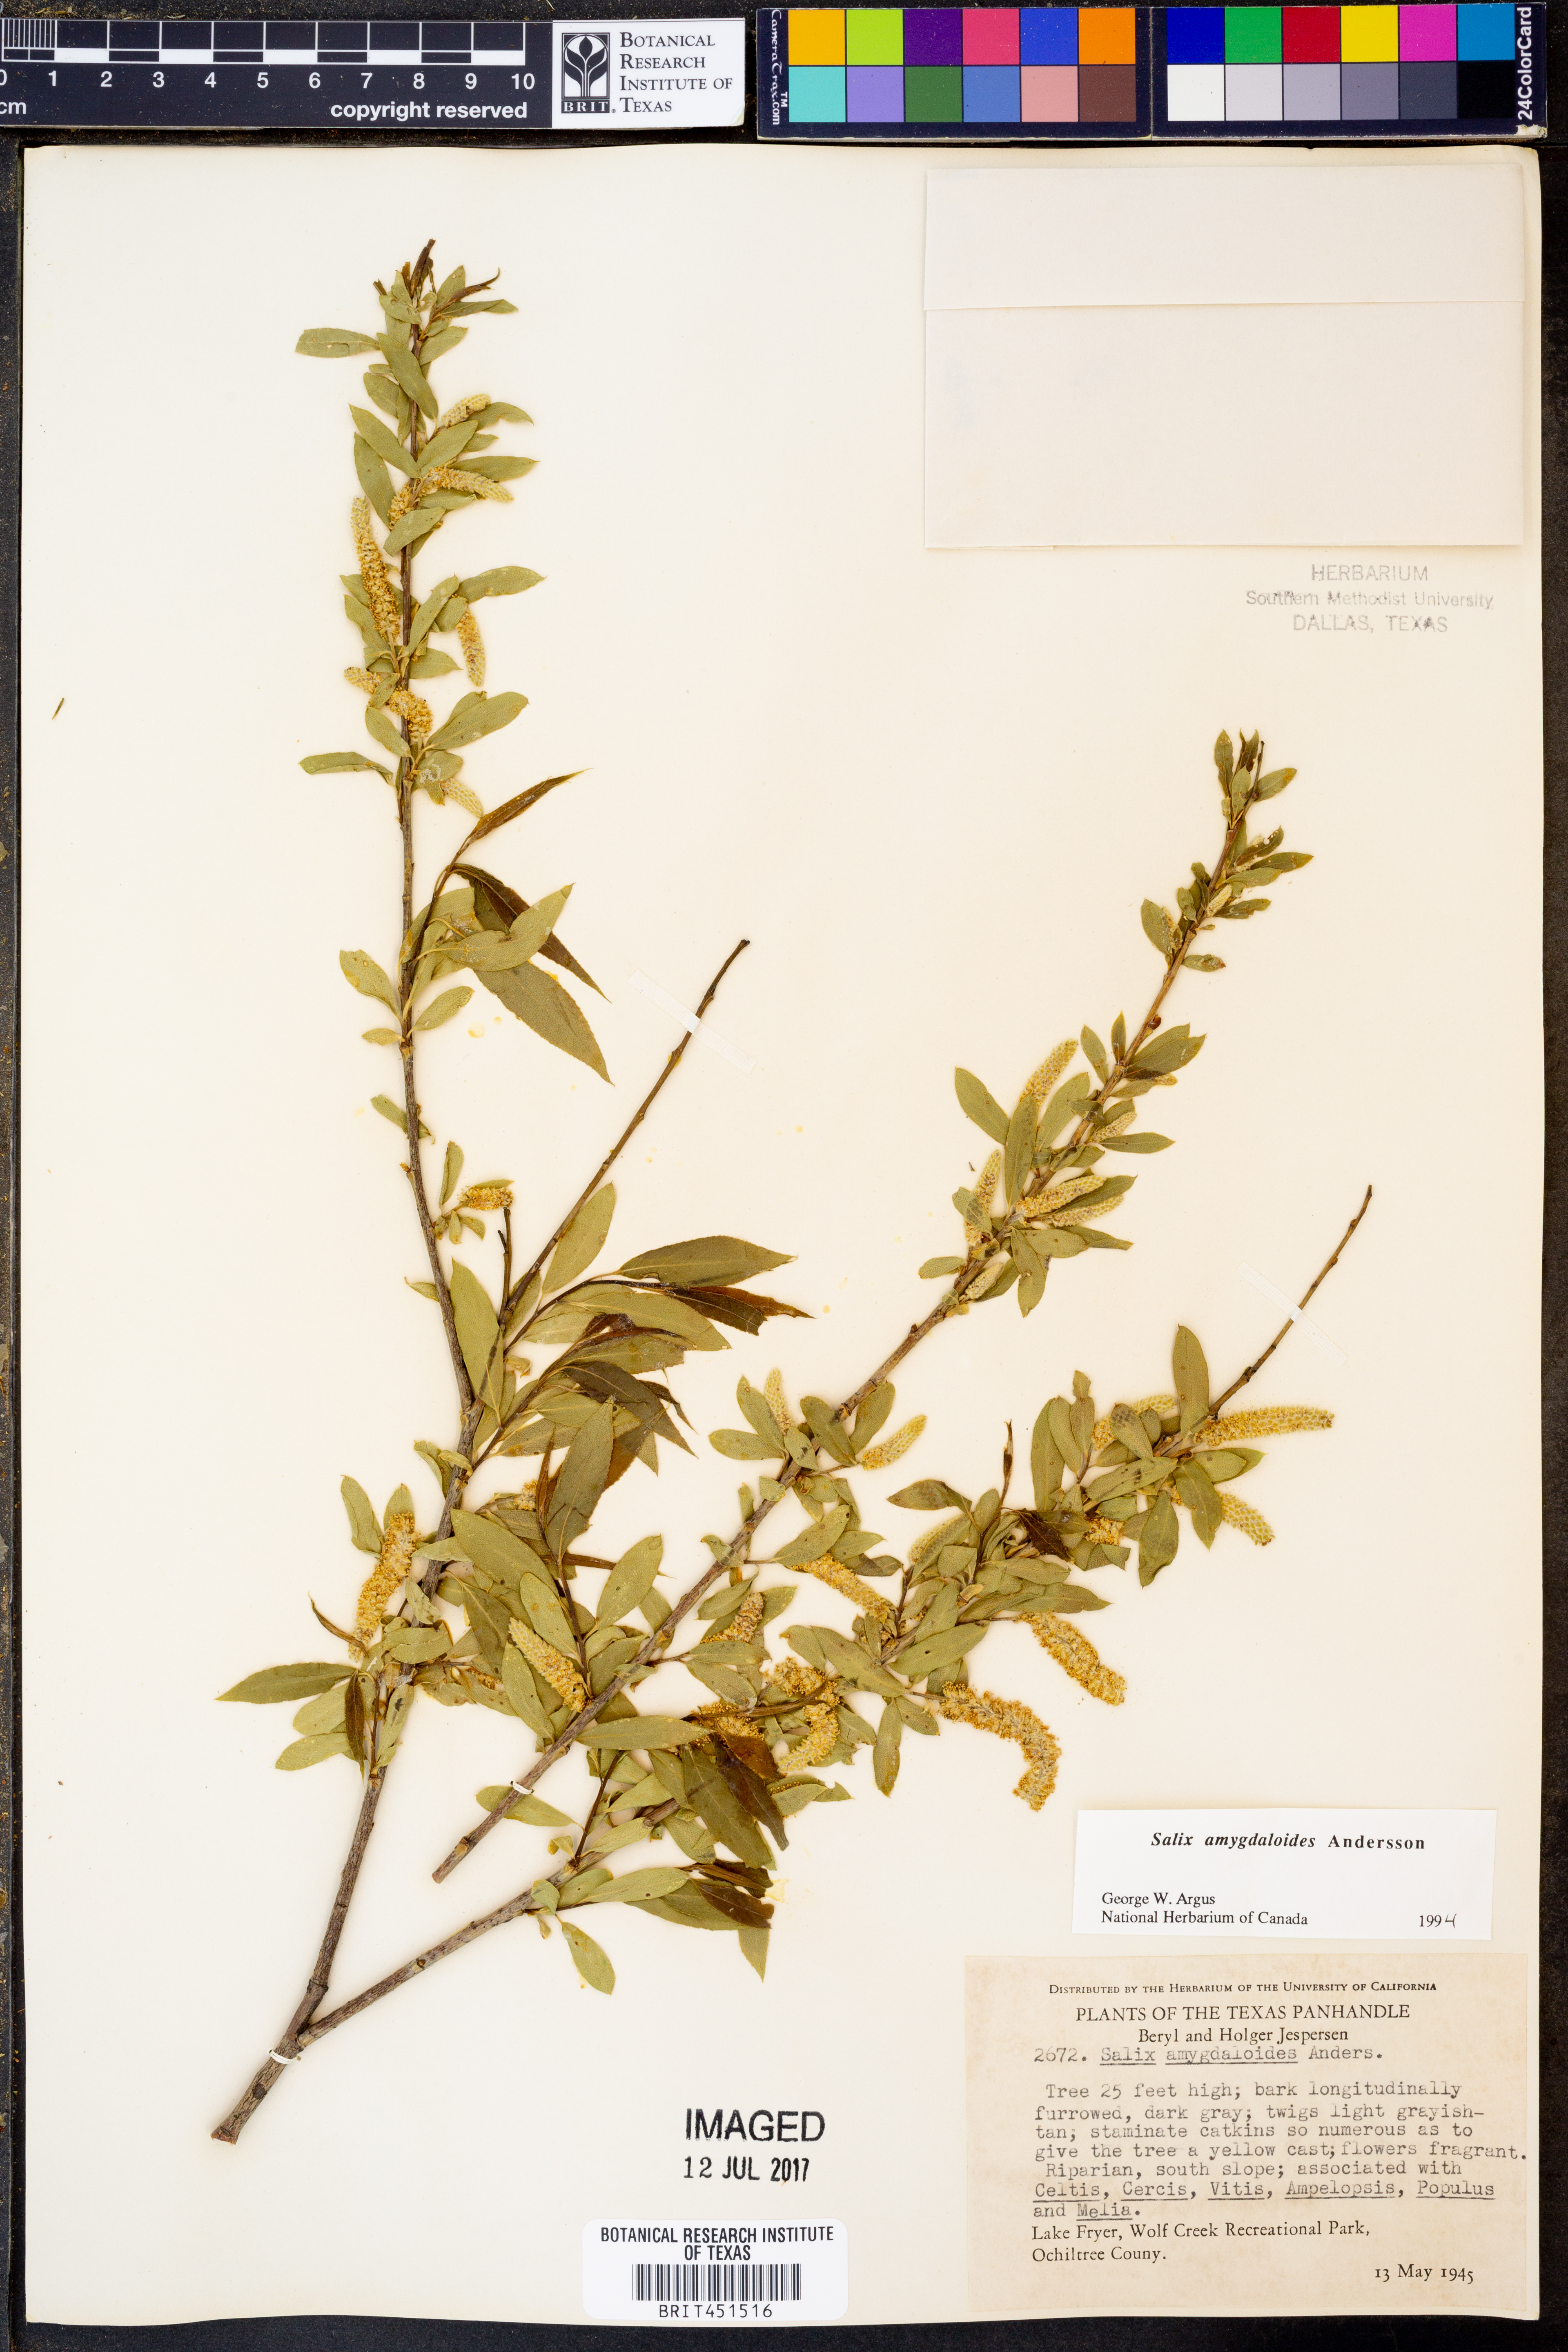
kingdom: Plantae
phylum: Tracheophyta
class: Magnoliopsida
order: Malpighiales
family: Salicaceae
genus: Salix
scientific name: Salix amygdaloides
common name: Peach leaf willow
